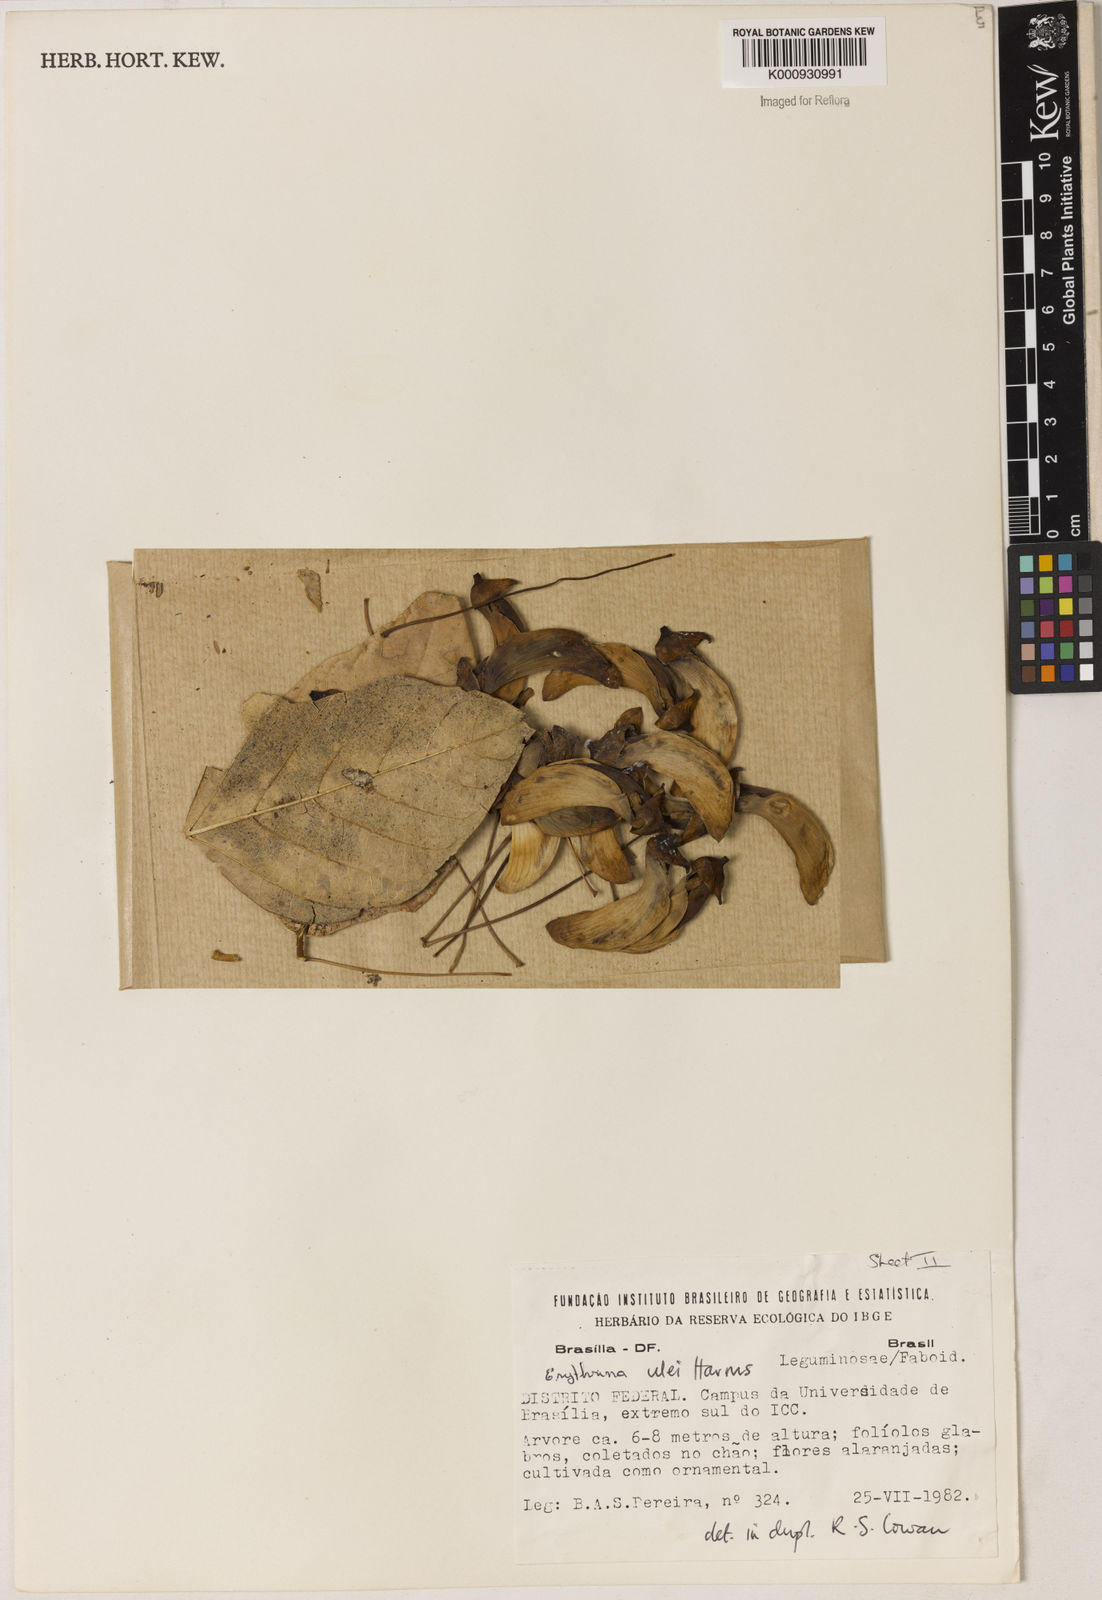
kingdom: Plantae
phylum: Tracheophyta
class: Magnoliopsida
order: Fabales
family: Fabaceae
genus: Erythrina
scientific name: Erythrina ulei
